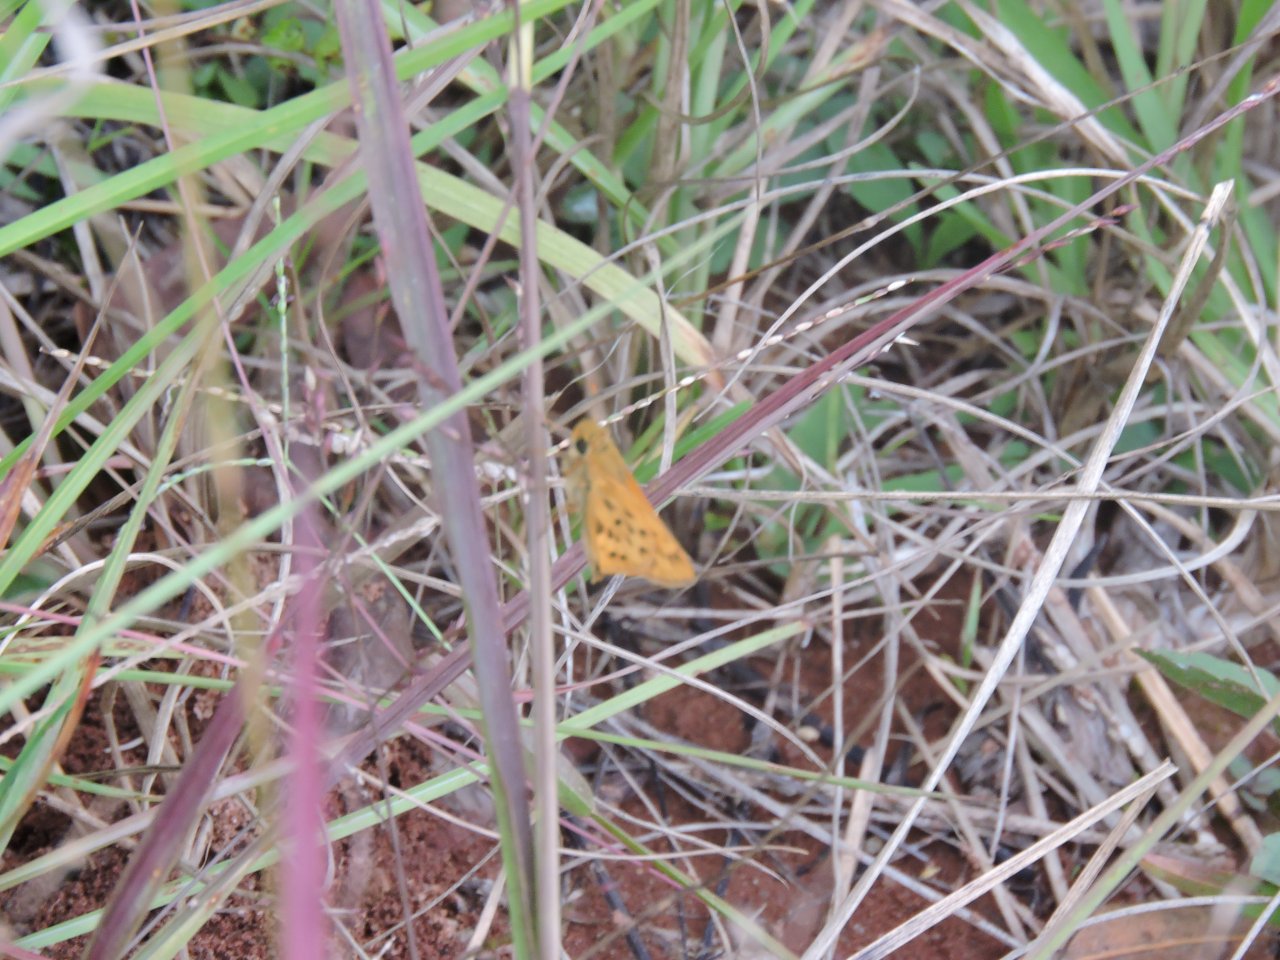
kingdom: Animalia
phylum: Arthropoda
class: Insecta
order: Lepidoptera
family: Hesperiidae
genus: Hylephila
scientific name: Hylephila phyleus
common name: Fiery Skipper
